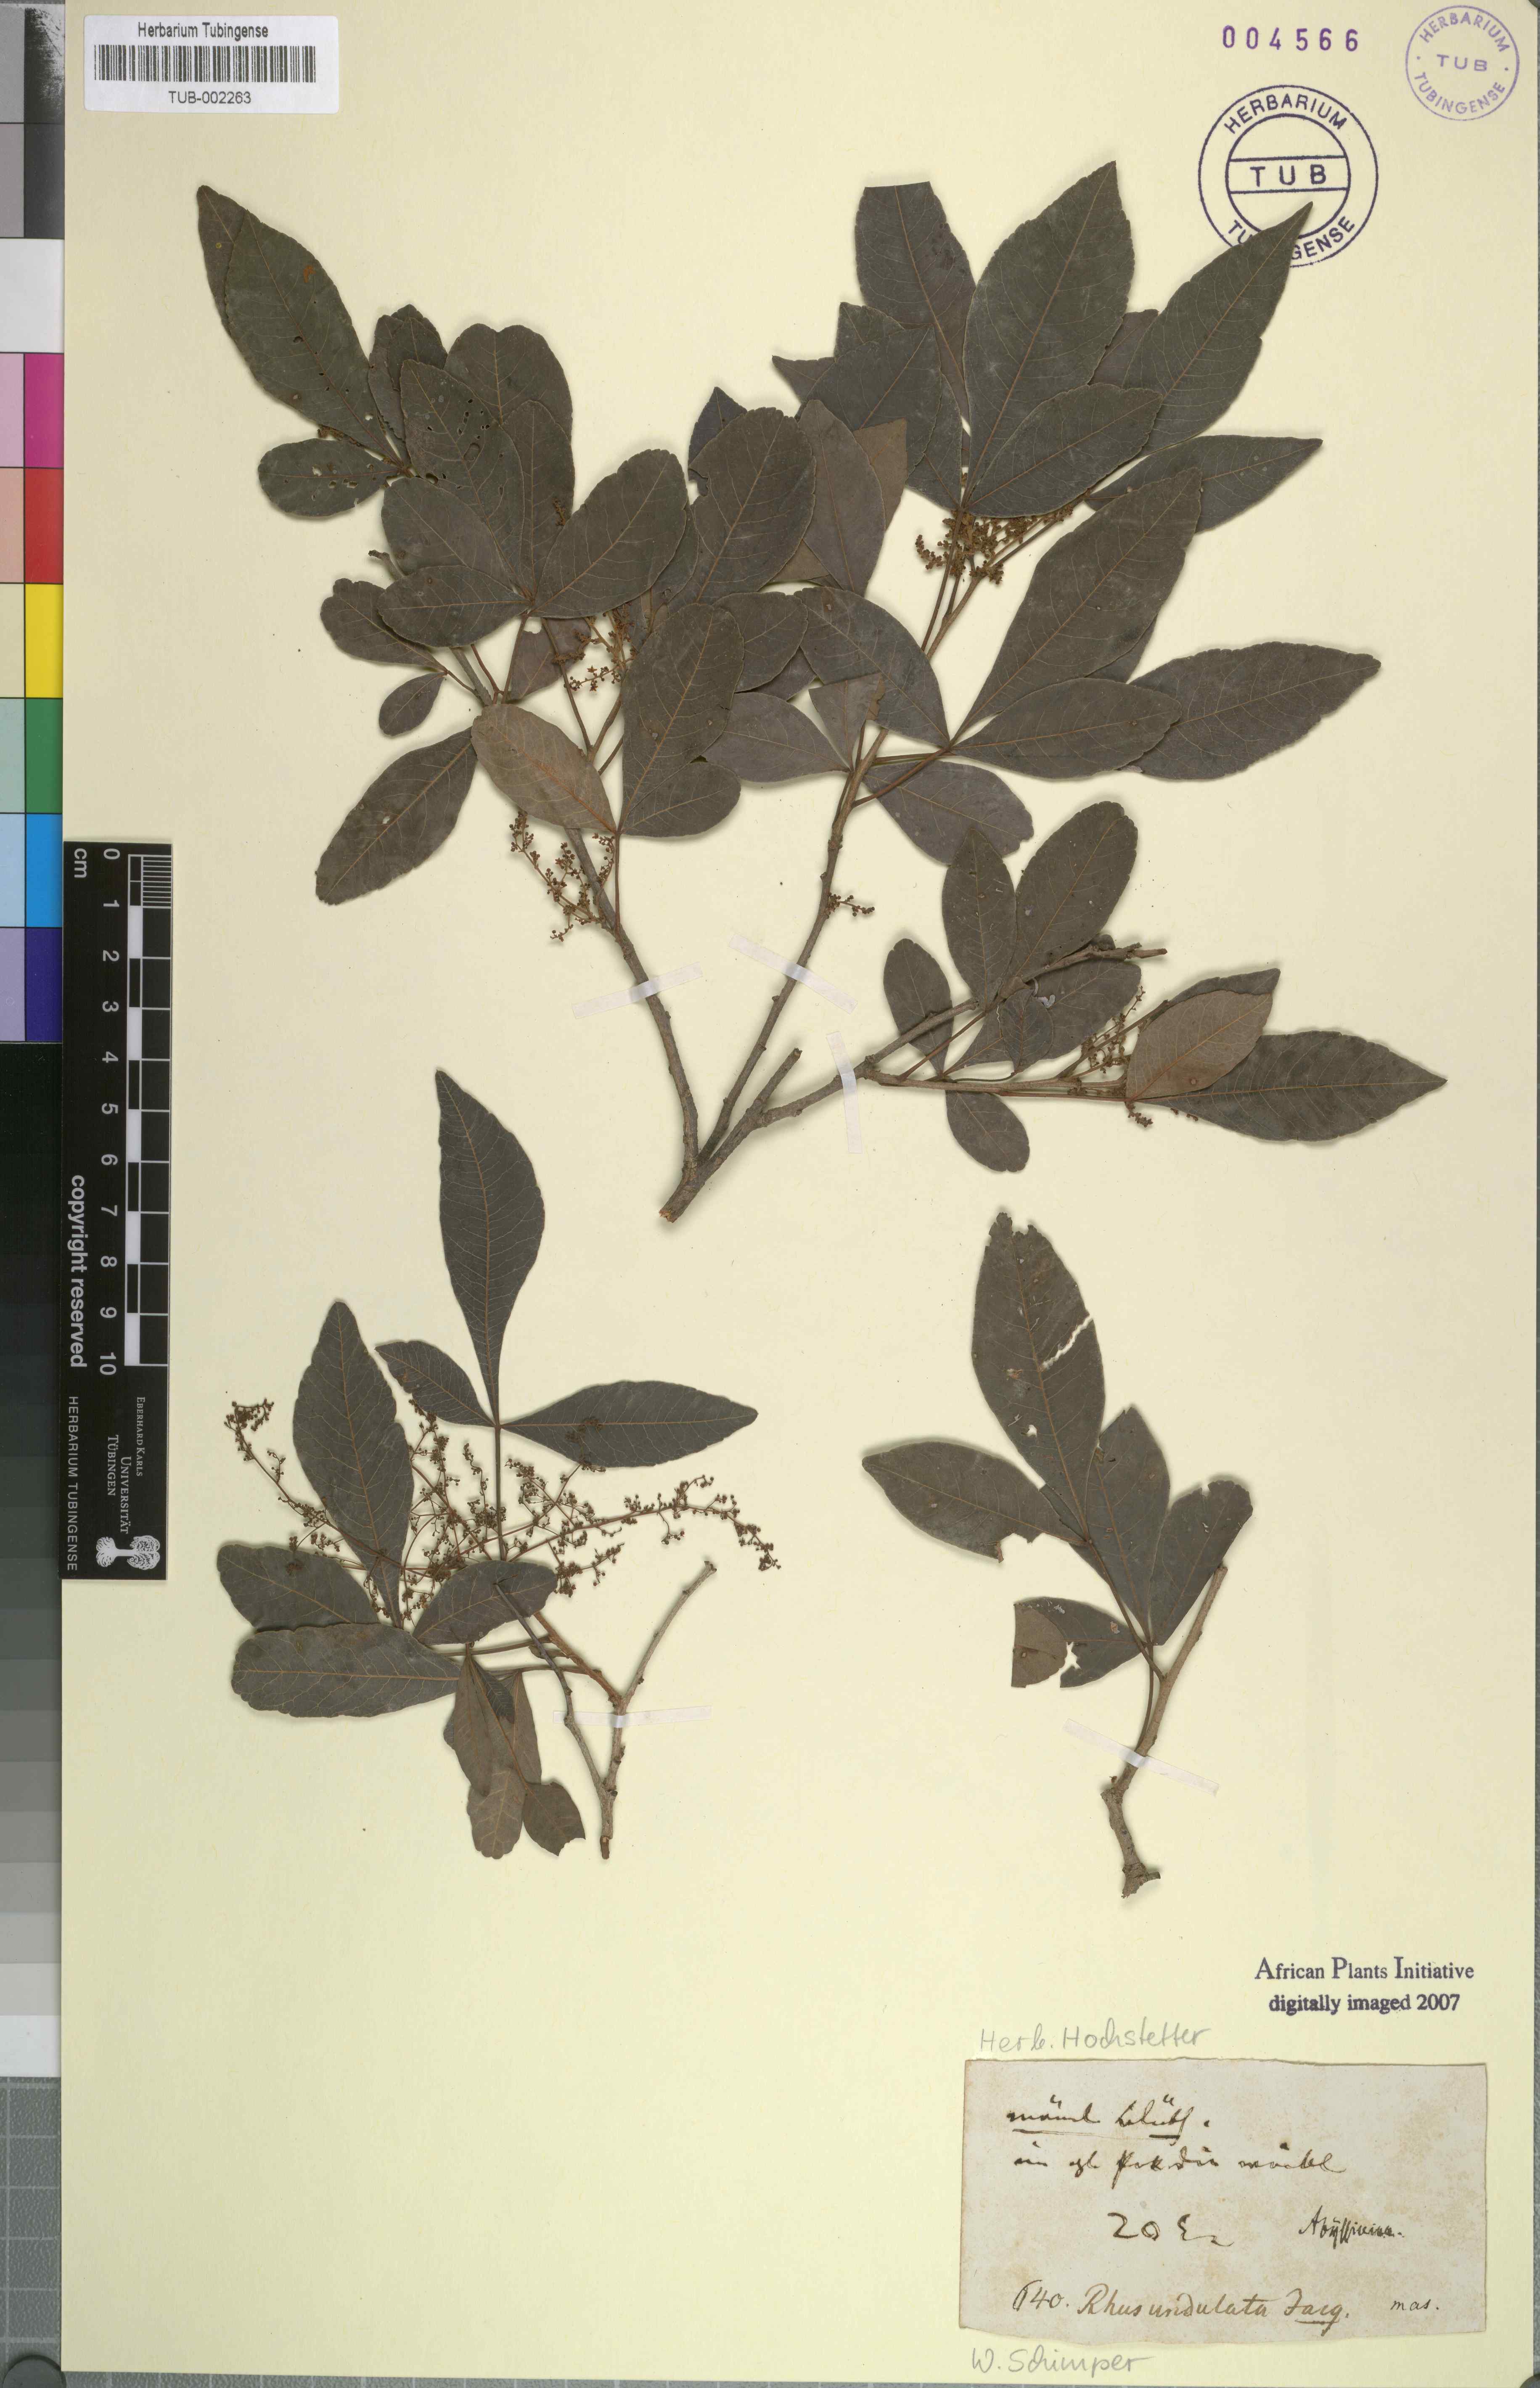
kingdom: Plantae
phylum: Tracheophyta
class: Magnoliopsida
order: Sapindales
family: Anacardiaceae
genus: Searsia
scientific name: Searsia undulata
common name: Namaqua kunibush
